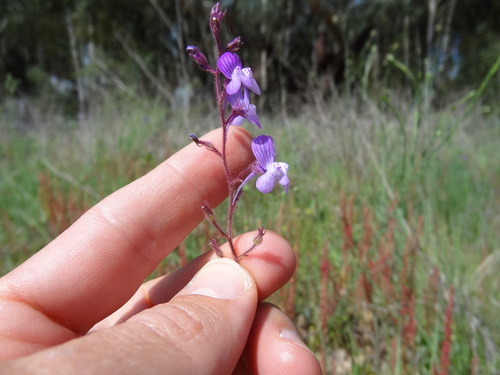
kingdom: Plantae
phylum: Tracheophyta
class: Magnoliopsida
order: Lamiales
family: Plantaginaceae
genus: Linaria
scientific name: Linaria incarnata
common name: Annual toadflax
